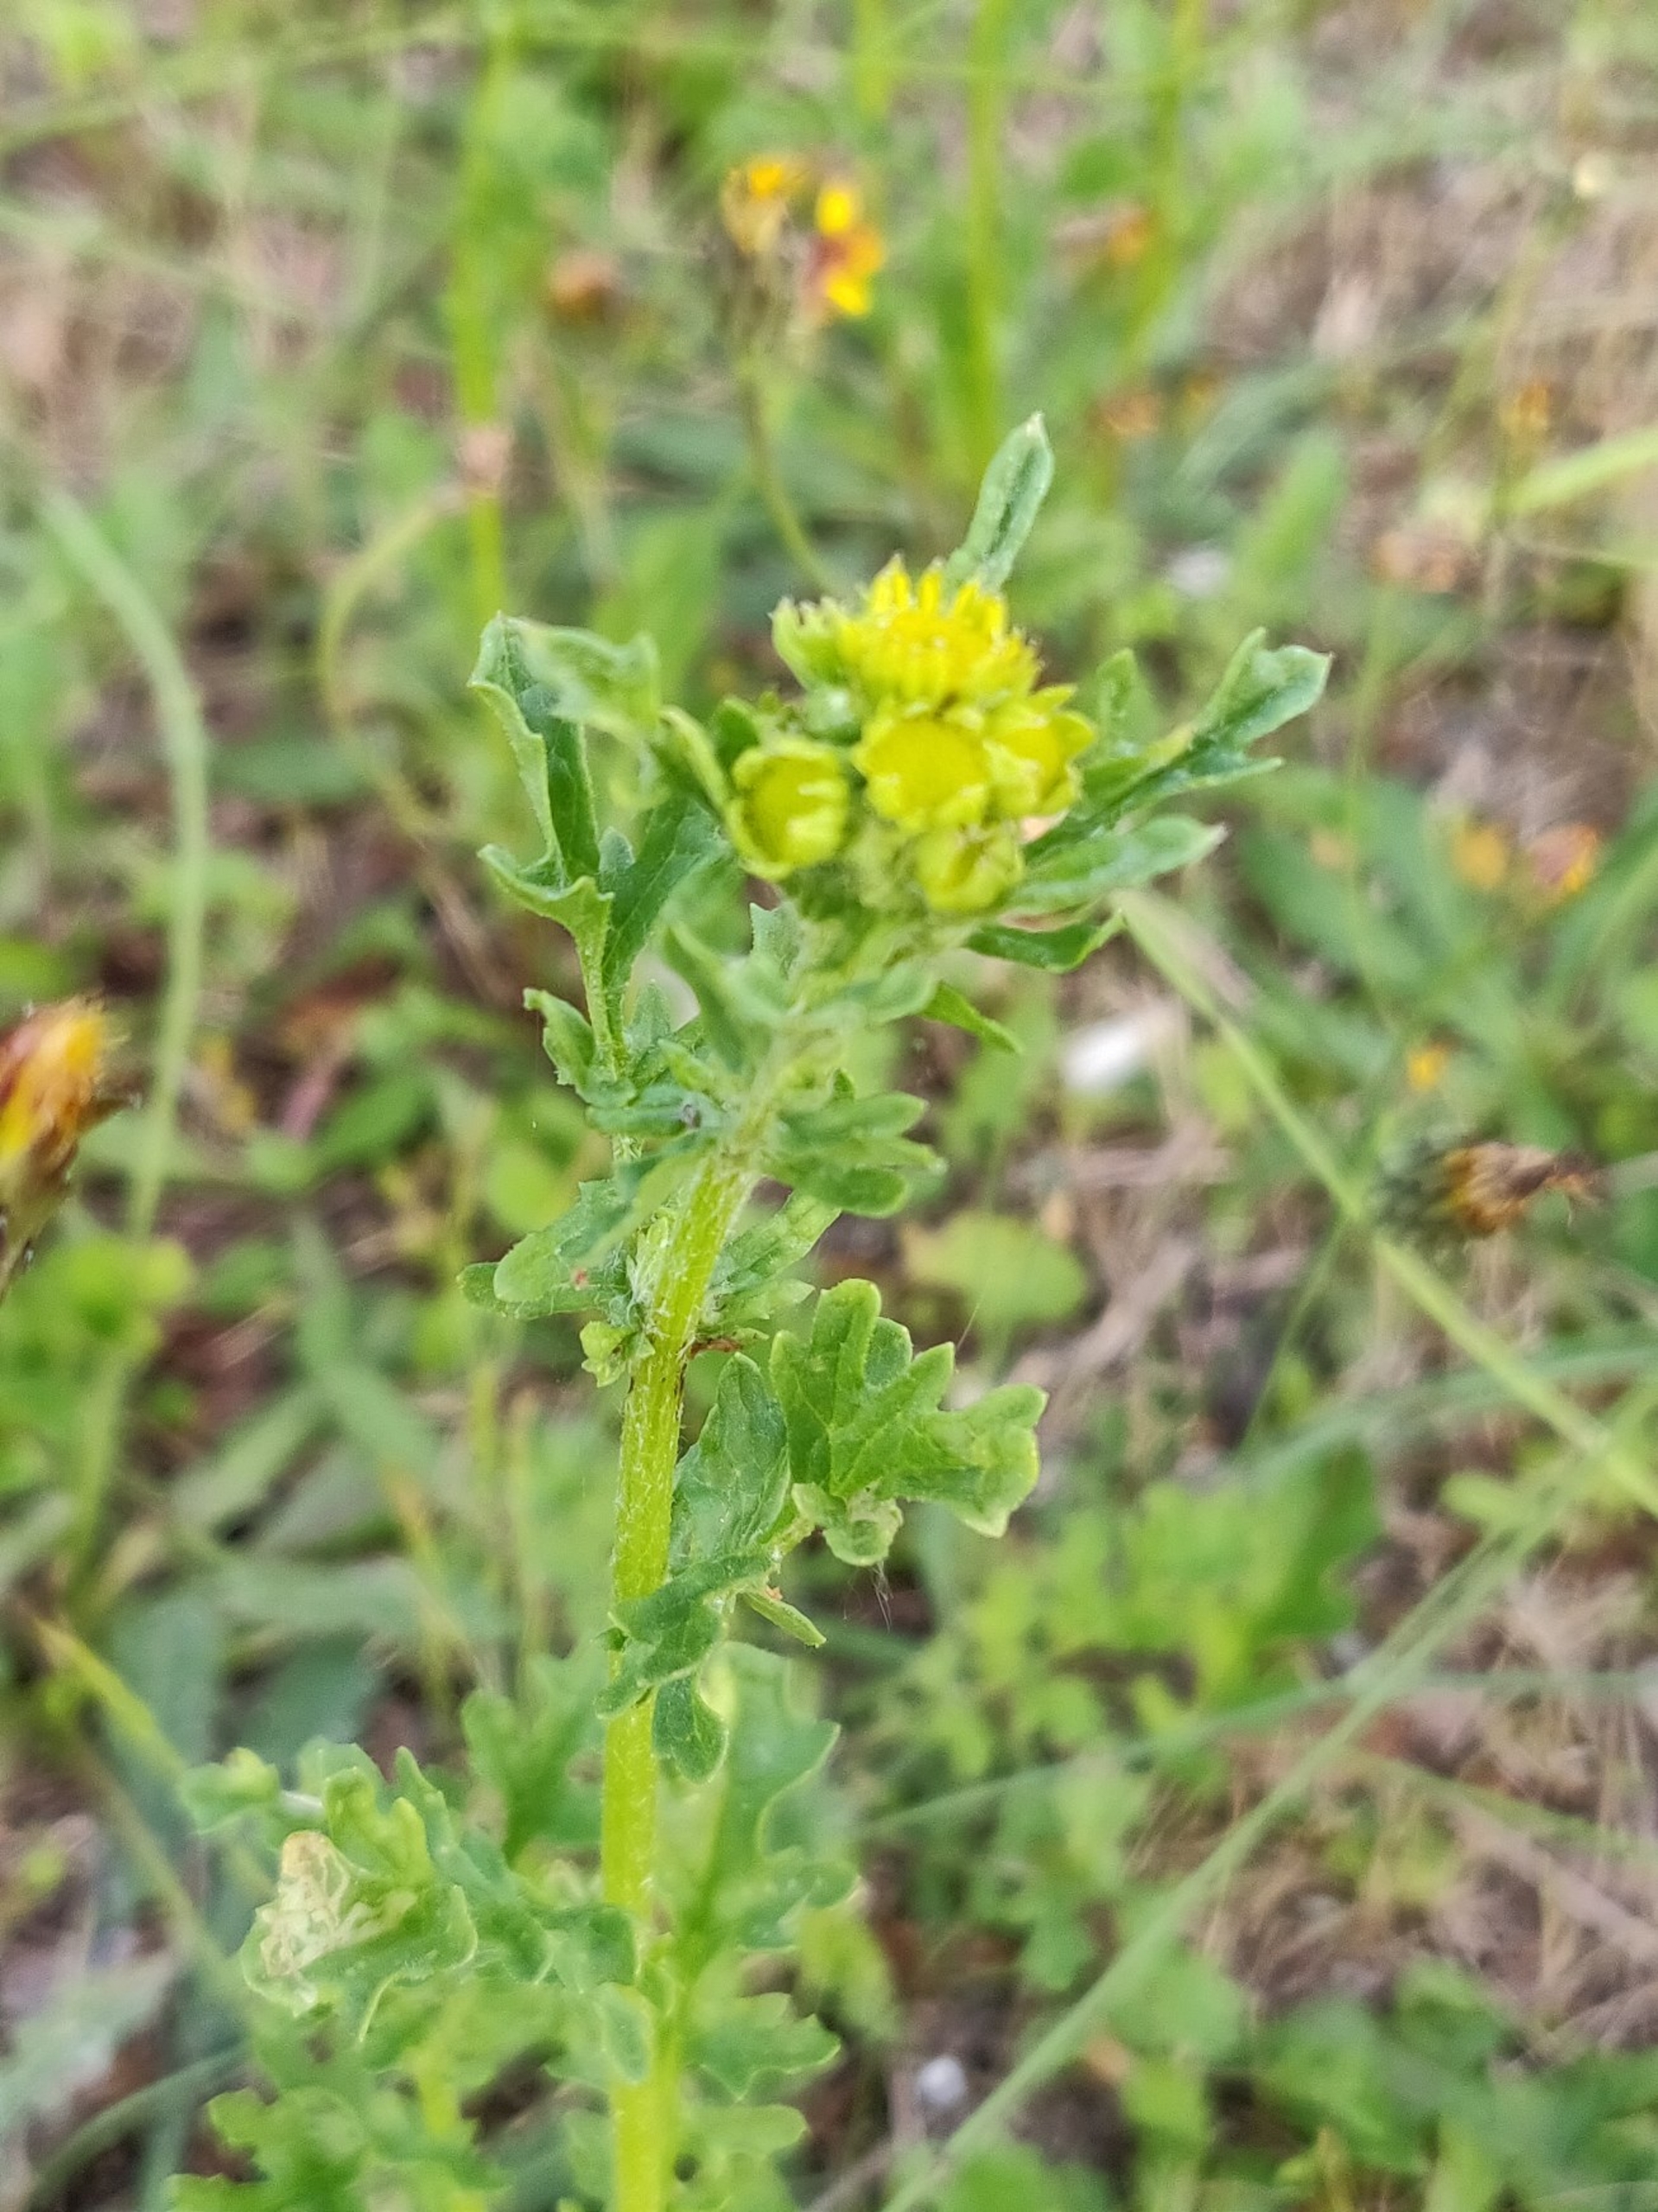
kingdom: Plantae
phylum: Tracheophyta
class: Magnoliopsida
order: Asterales
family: Asteraceae
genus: Jacobaea
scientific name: Jacobaea vulgaris
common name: Eng-brandbæger
